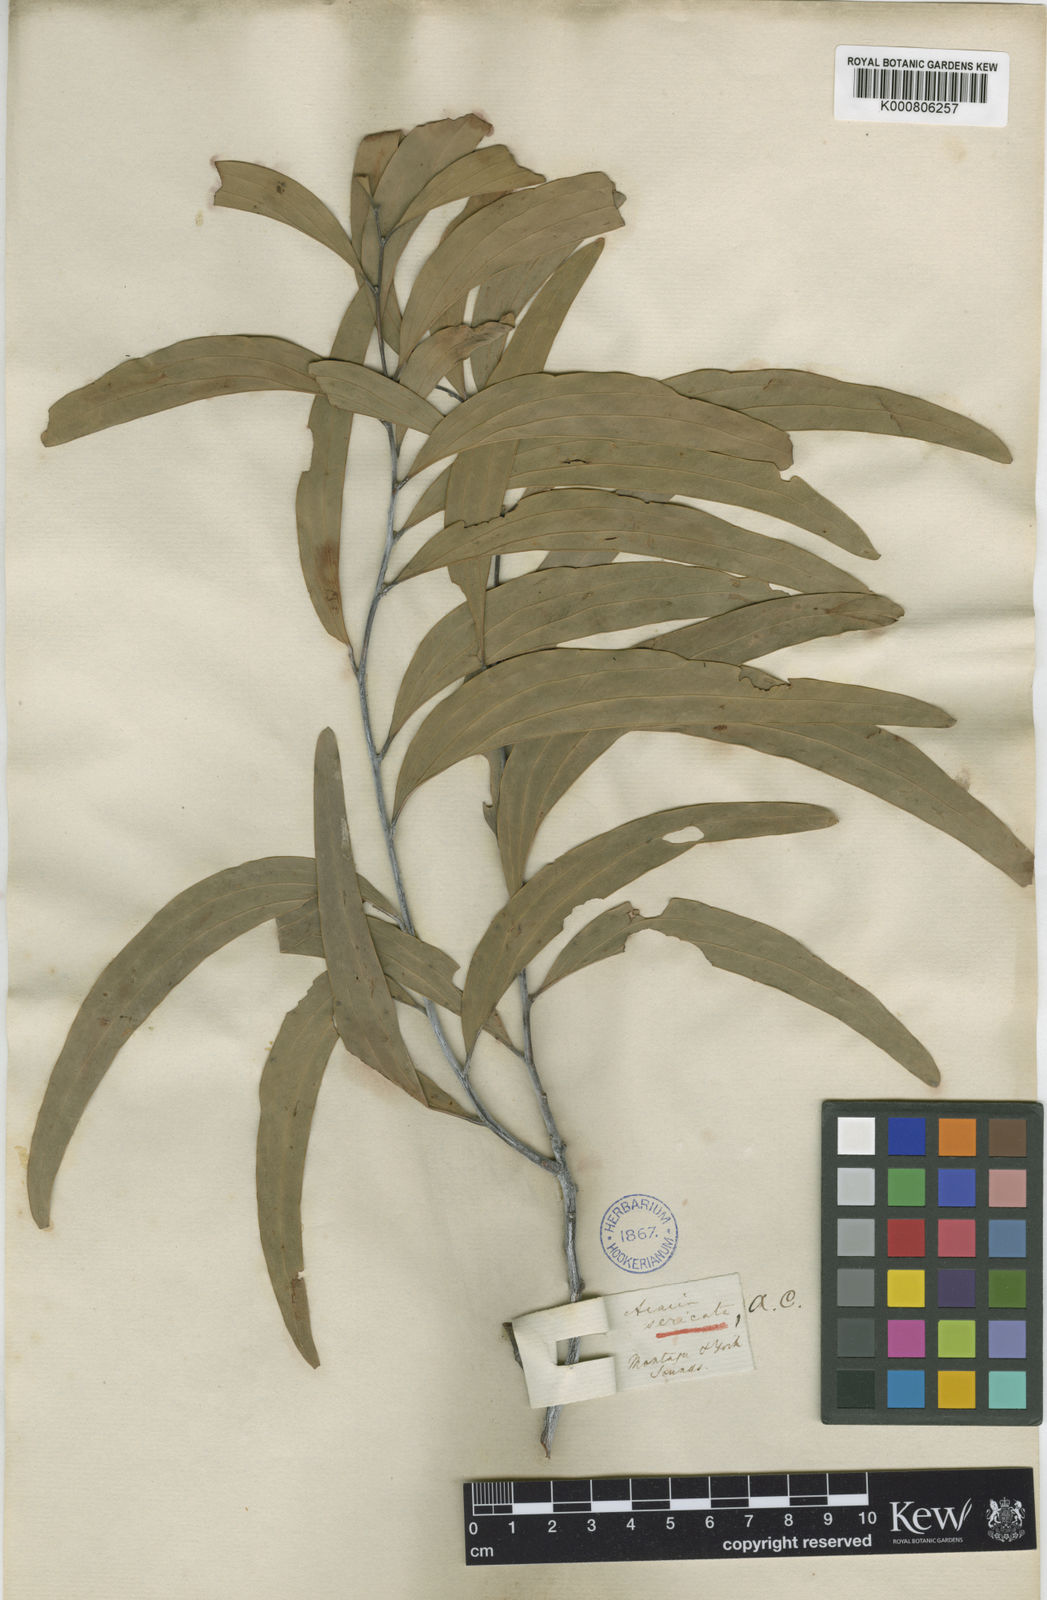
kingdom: Plantae
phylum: Tracheophyta
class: Magnoliopsida
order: Fabales
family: Fabaceae
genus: Acacia
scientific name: Acacia
